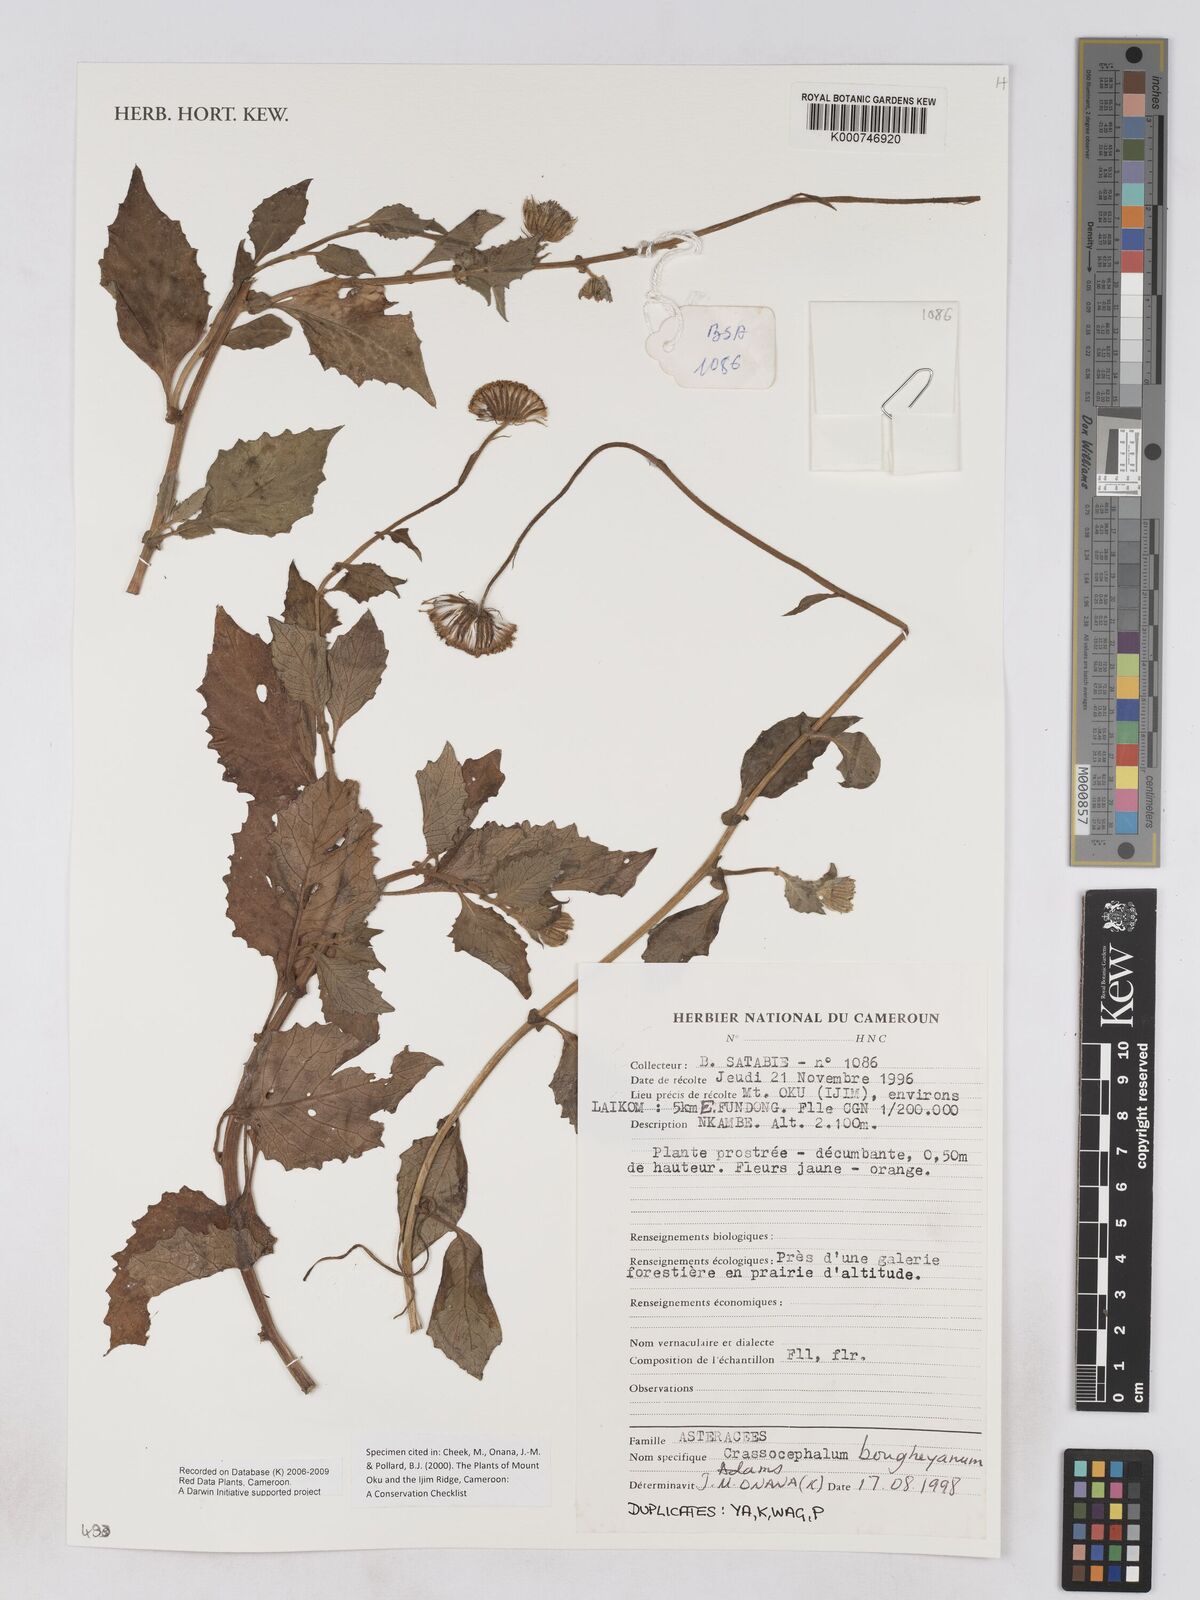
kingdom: Plantae
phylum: Tracheophyta
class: Magnoliopsida
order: Asterales
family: Asteraceae
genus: Crassocephalum
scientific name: Crassocephalum bougheyanum
